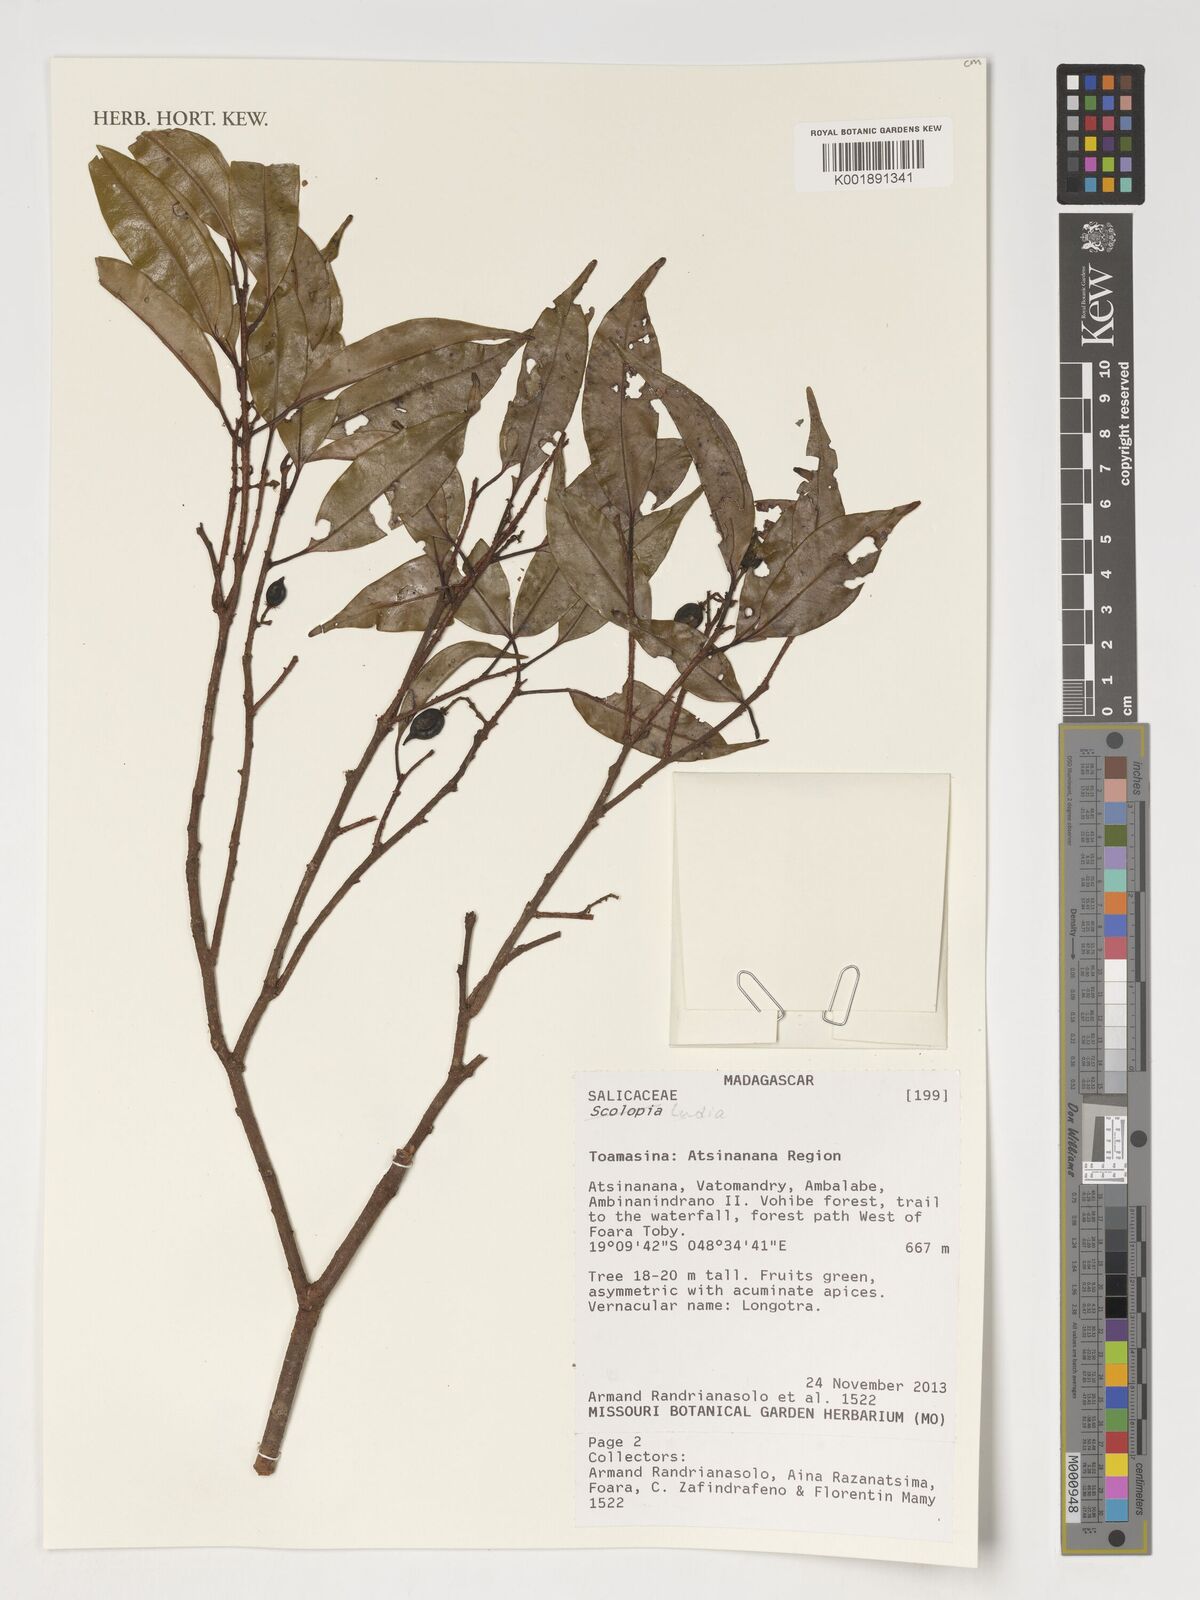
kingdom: Plantae
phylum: Tracheophyta
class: Magnoliopsida
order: Malpighiales
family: Salicaceae
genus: Ludia
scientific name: Ludia
